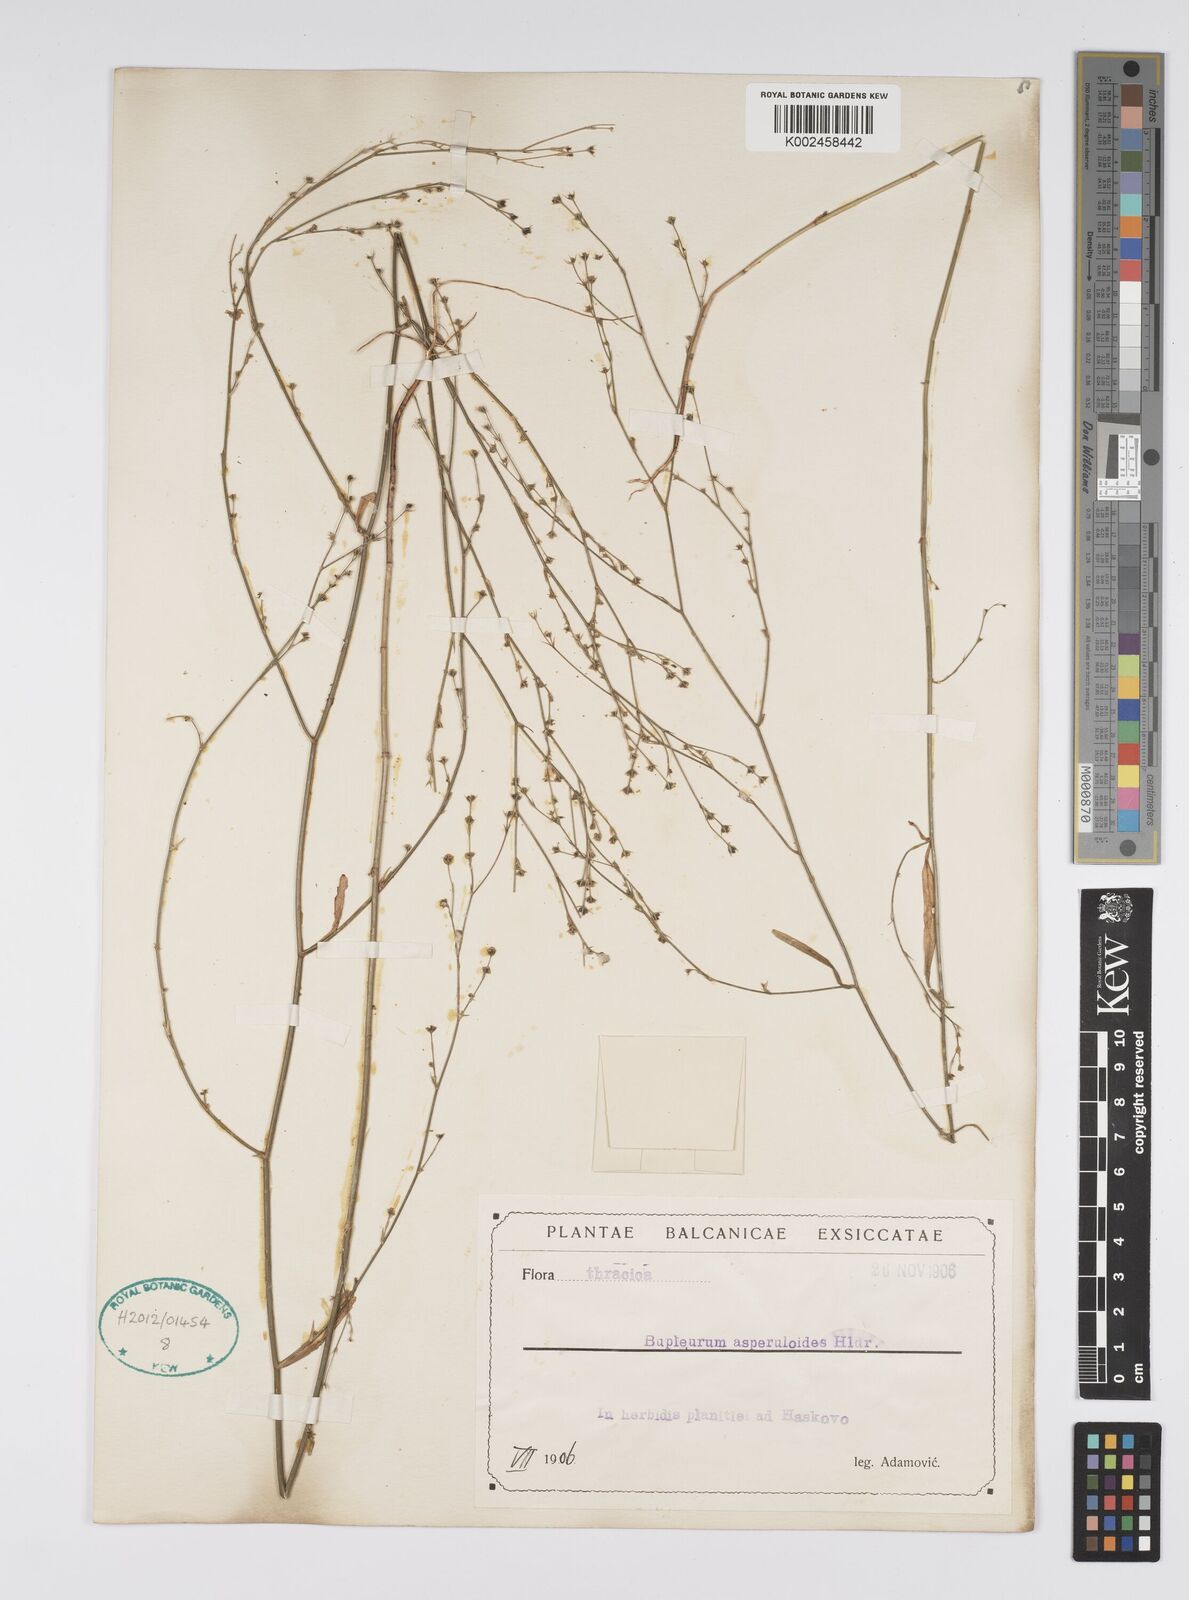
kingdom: Plantae
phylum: Tracheophyta
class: Magnoliopsida
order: Apiales
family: Apiaceae
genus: Bupleurum
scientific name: Bupleurum asperuloides
